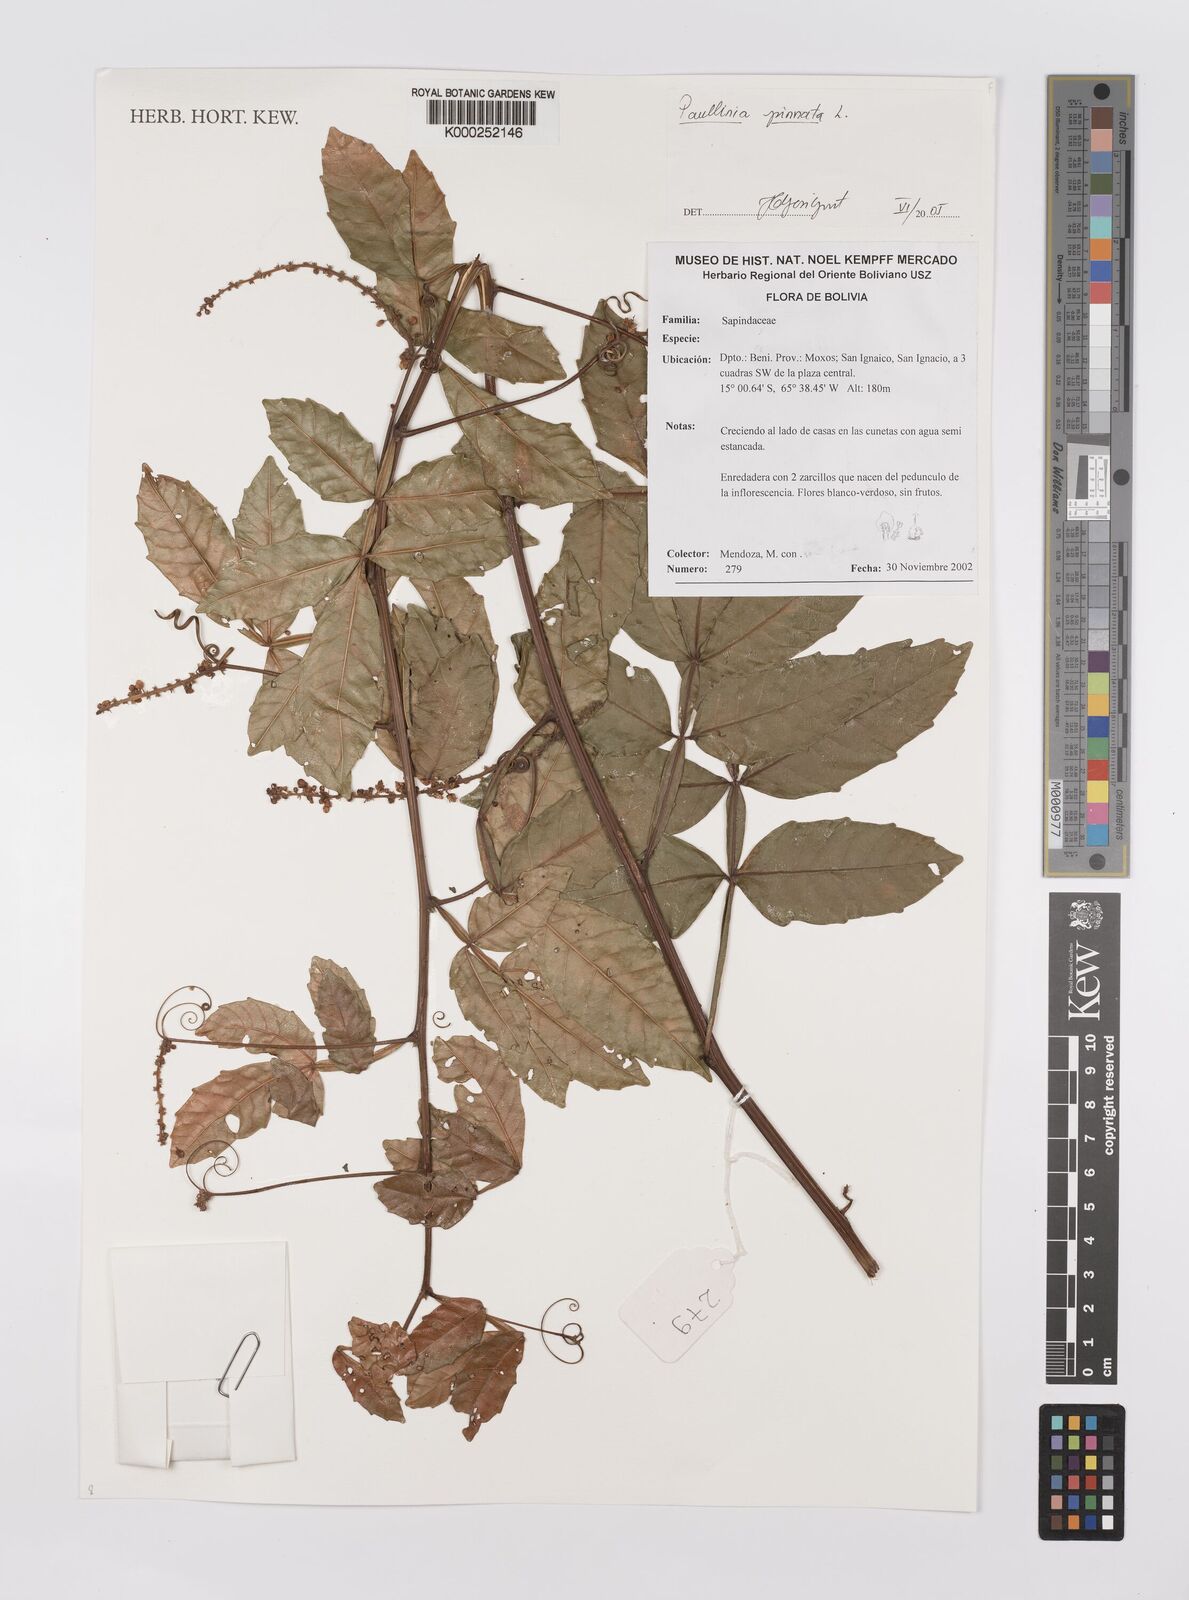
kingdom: Plantae
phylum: Tracheophyta
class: Magnoliopsida
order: Sapindales
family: Sapindaceae
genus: Paullinia
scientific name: Paullinia pinnata
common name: Barbasco
